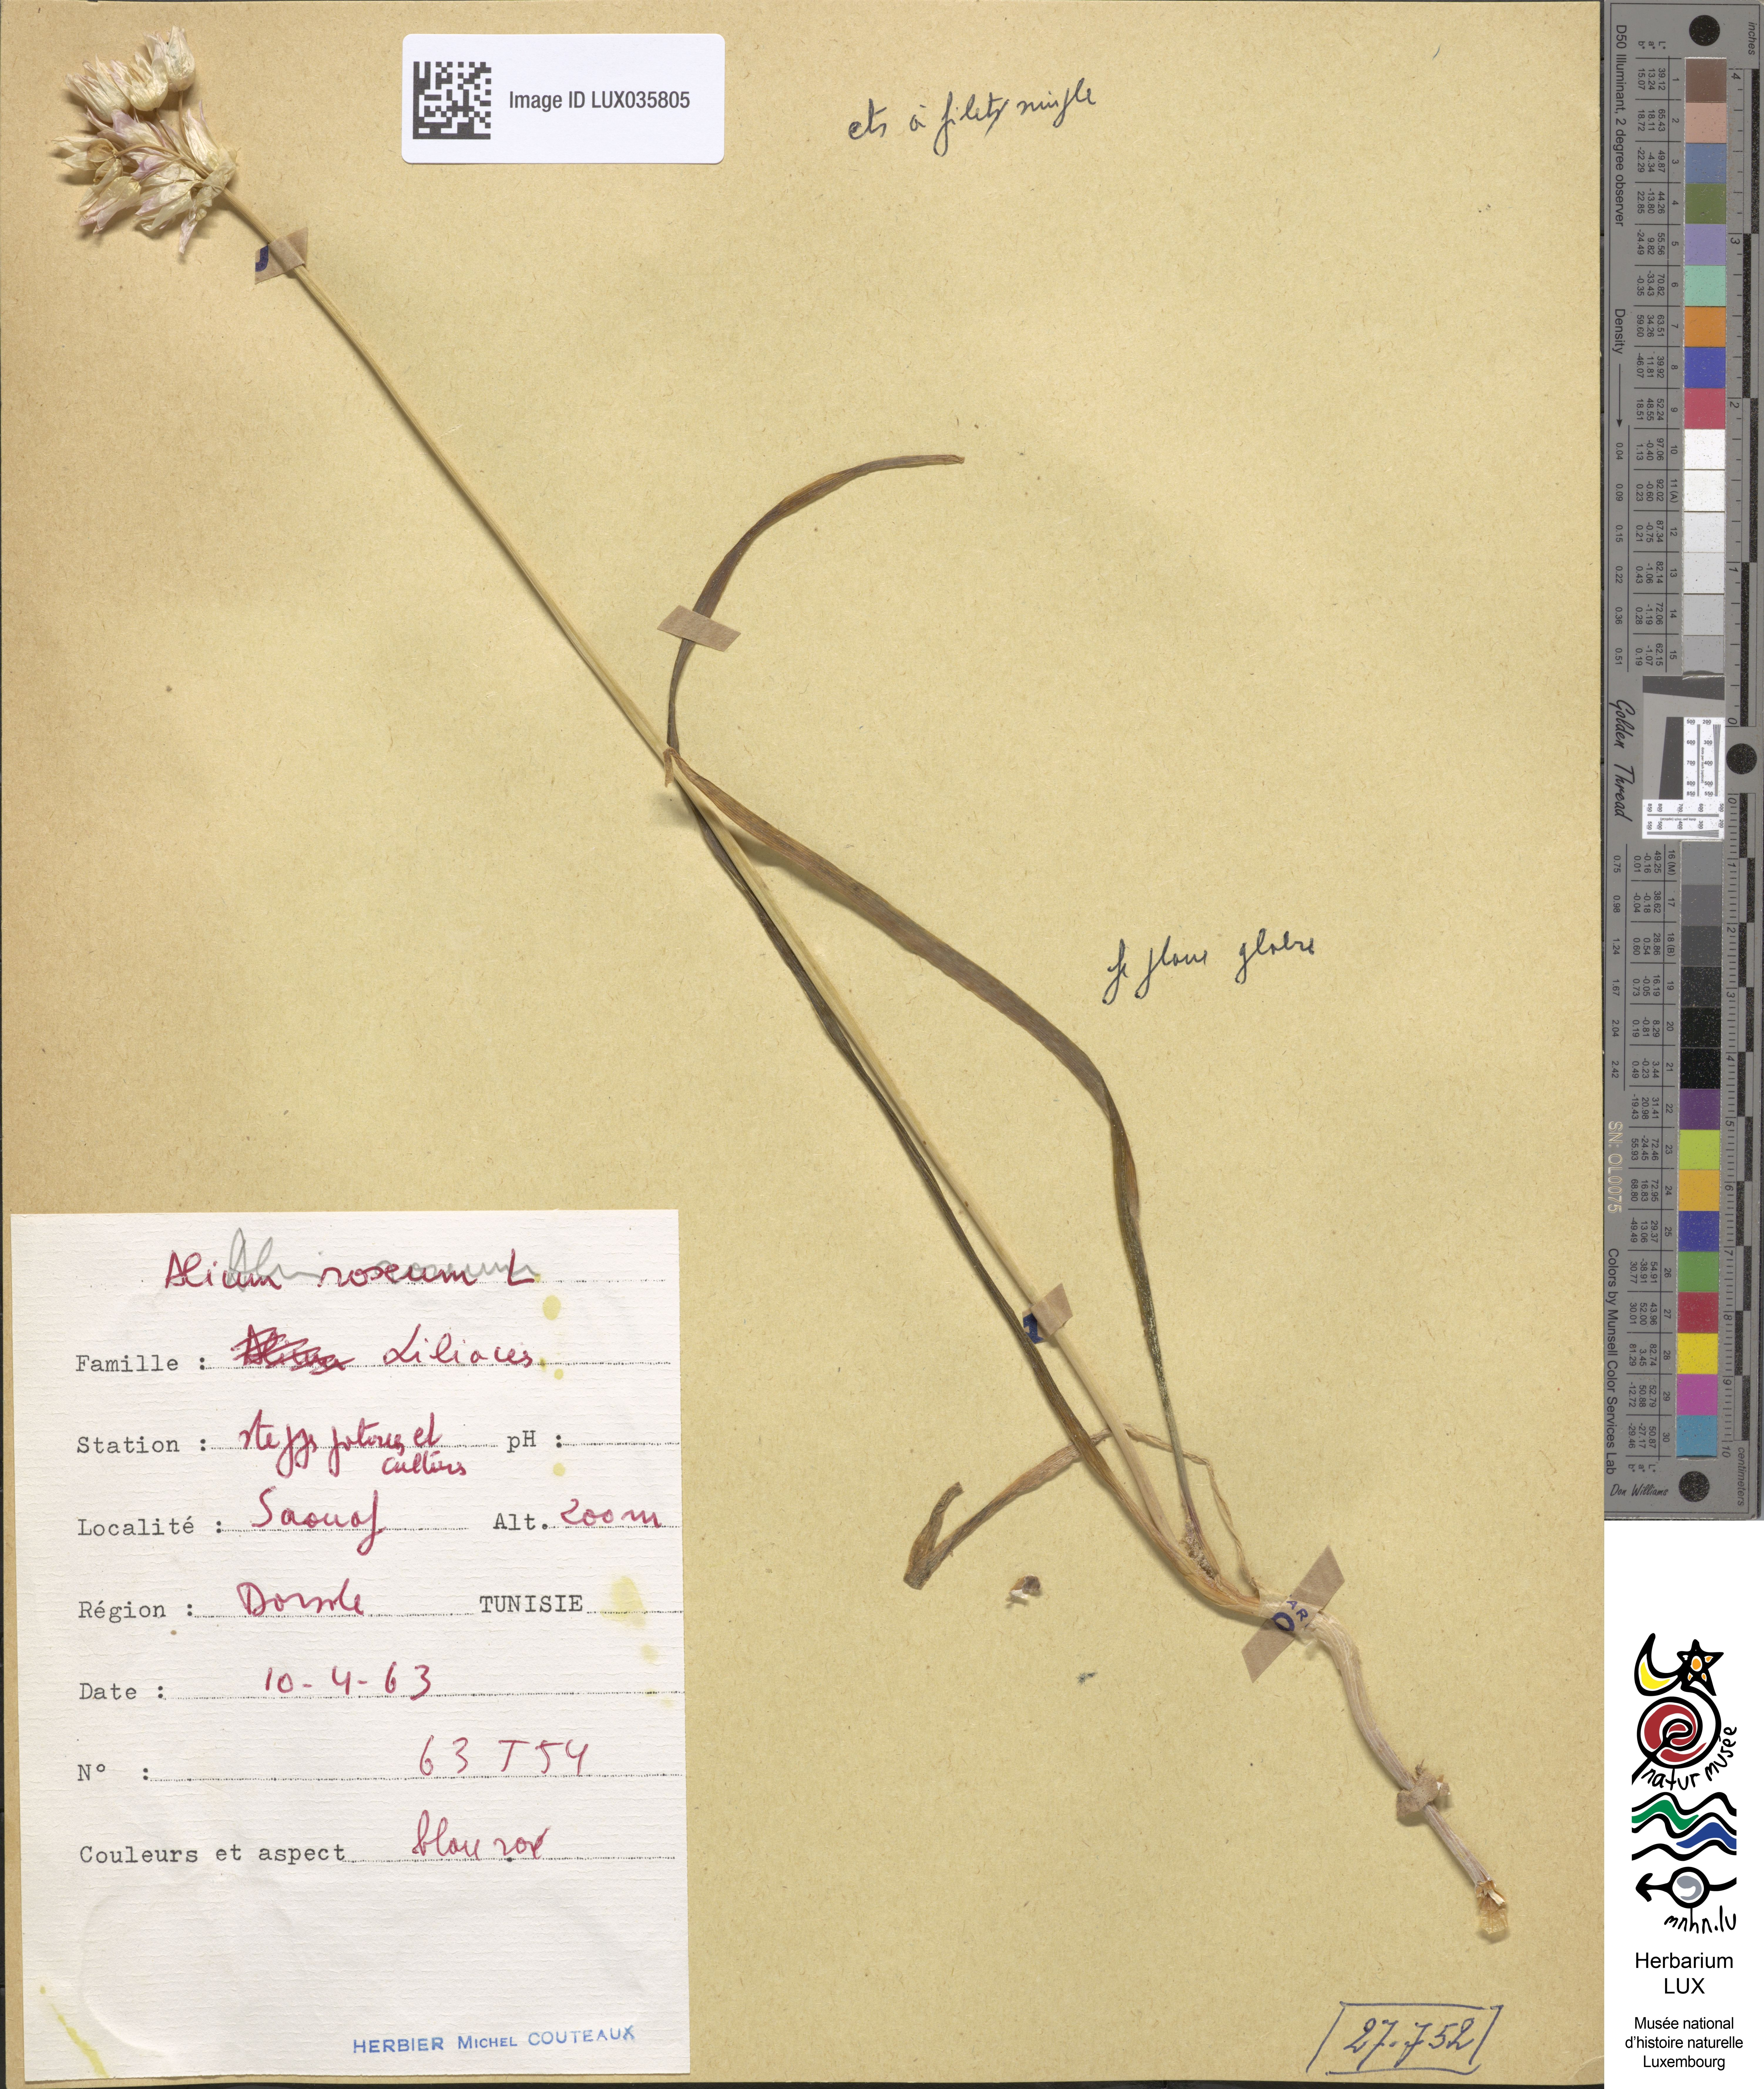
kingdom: Plantae
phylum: Tracheophyta
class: Liliopsida
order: Asparagales
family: Amaryllidaceae
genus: Allium
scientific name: Allium roseum
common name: Rosy garlic
